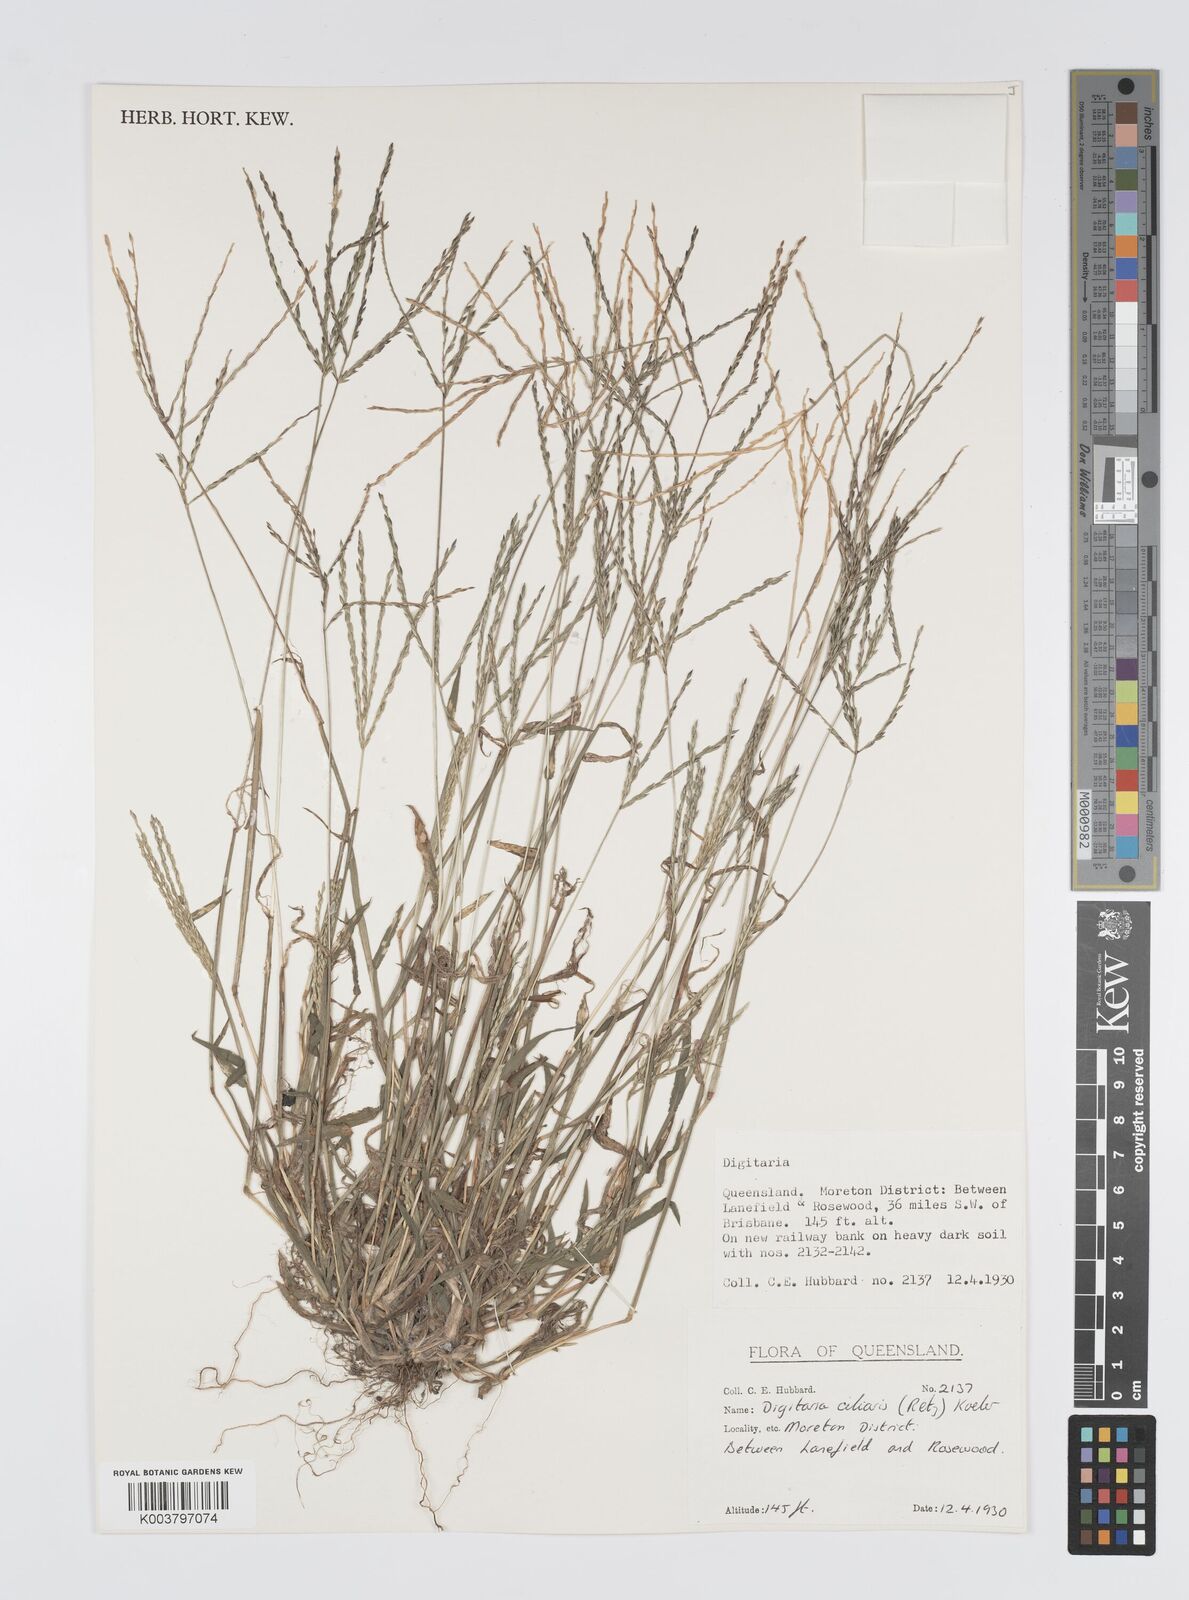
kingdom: Plantae
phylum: Tracheophyta
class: Liliopsida
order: Poales
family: Poaceae
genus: Digitaria
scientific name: Digitaria ciliaris
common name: Tropical finger-grass
